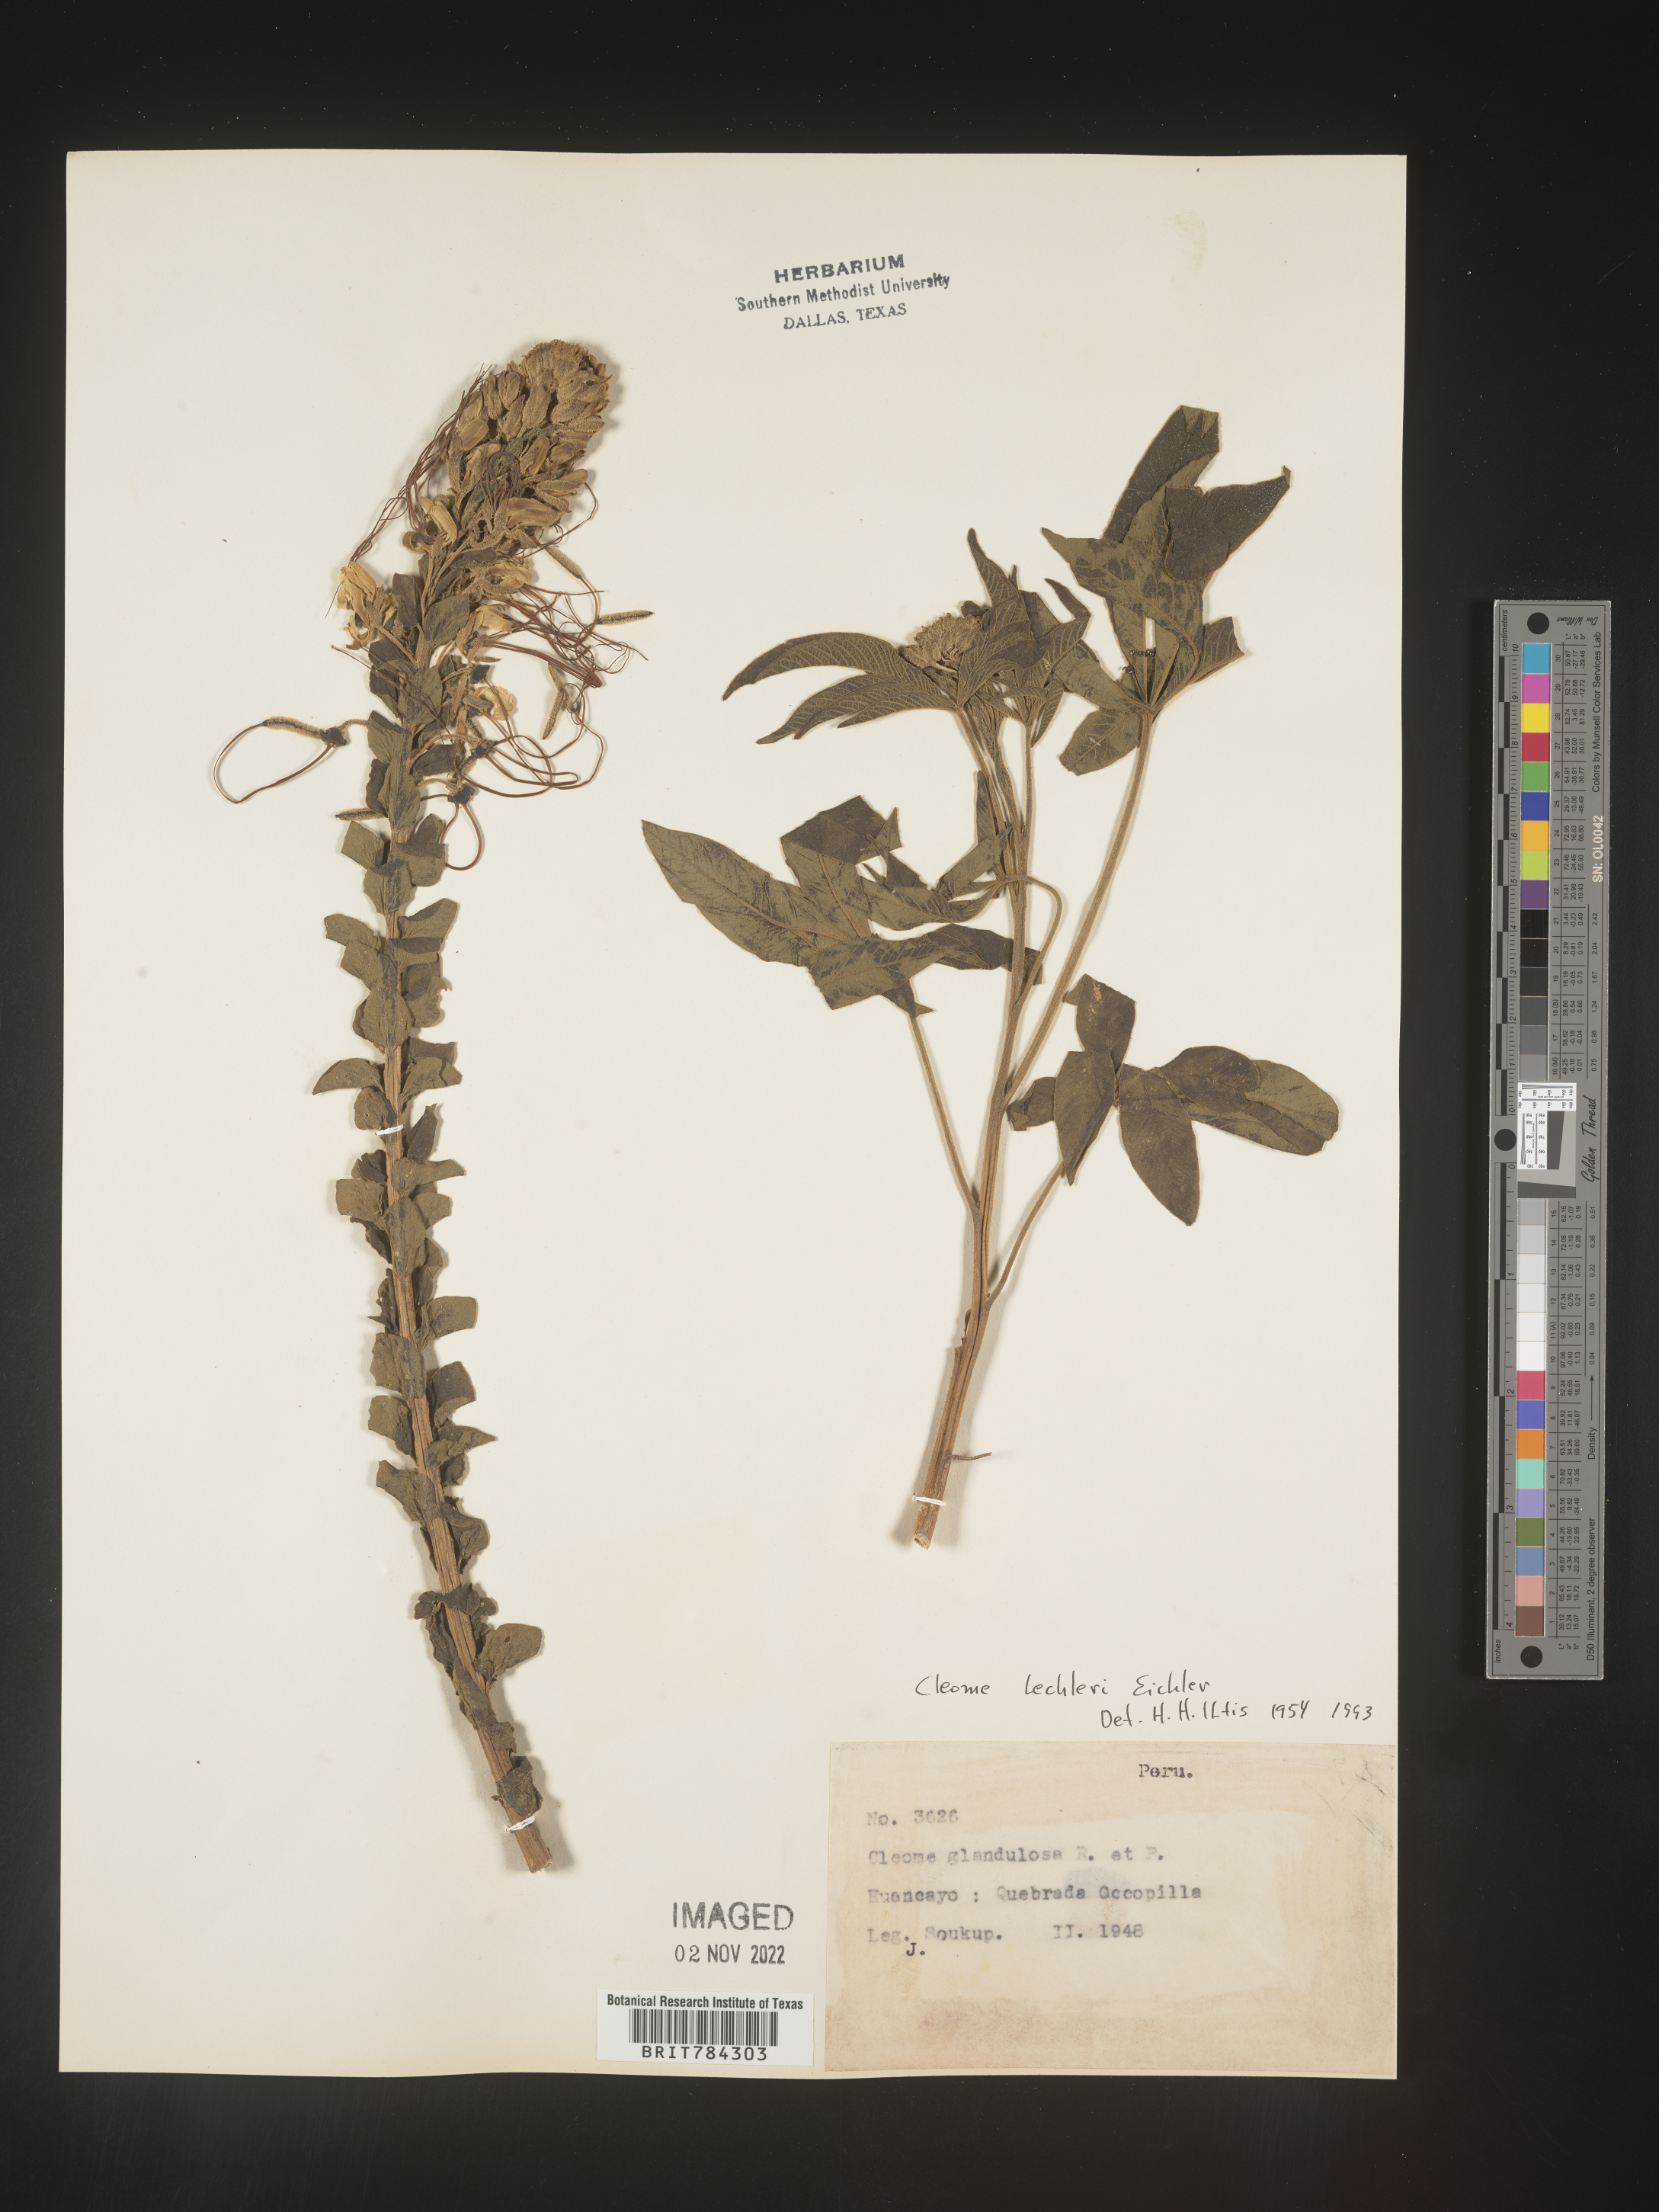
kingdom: Plantae
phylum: Tracheophyta
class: Magnoliopsida
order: Brassicales
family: Cleomaceae
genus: Cleome
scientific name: Cleome
